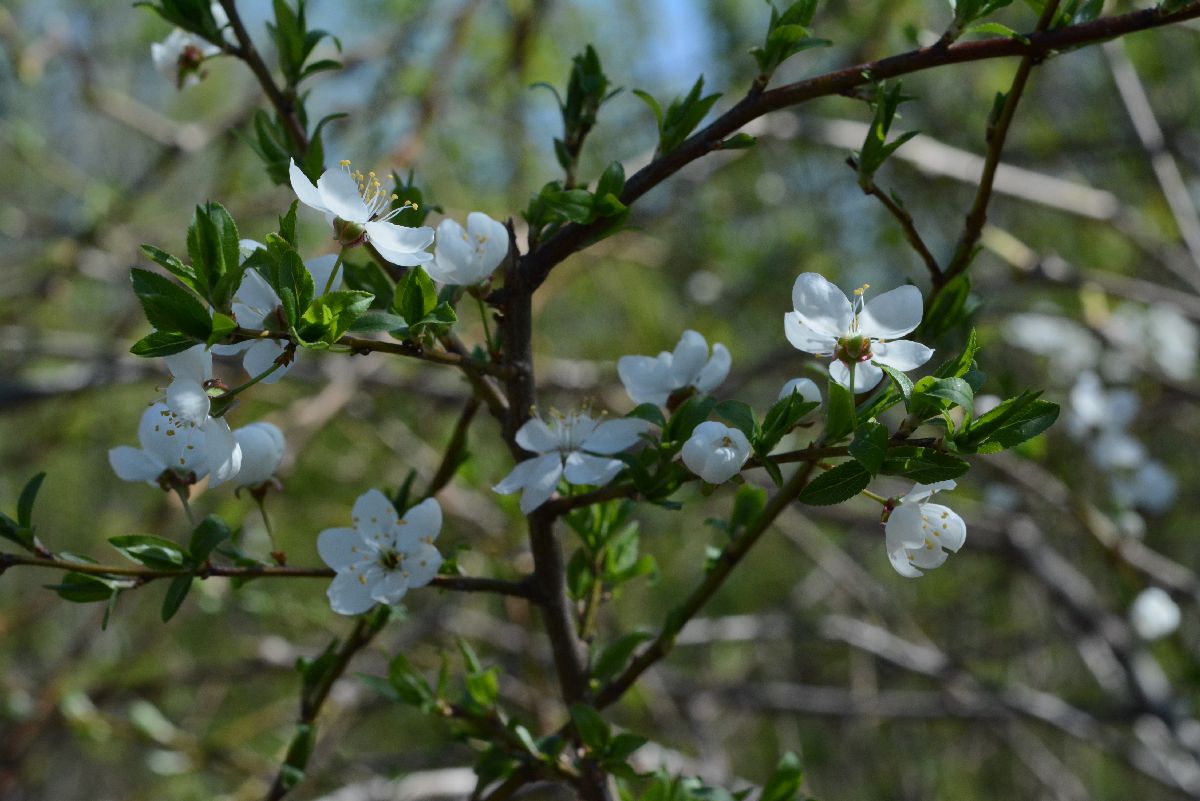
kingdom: Plantae
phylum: Tracheophyta
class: Magnoliopsida
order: Rosales
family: Rosaceae
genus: Prunus
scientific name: Prunus cerasifera
